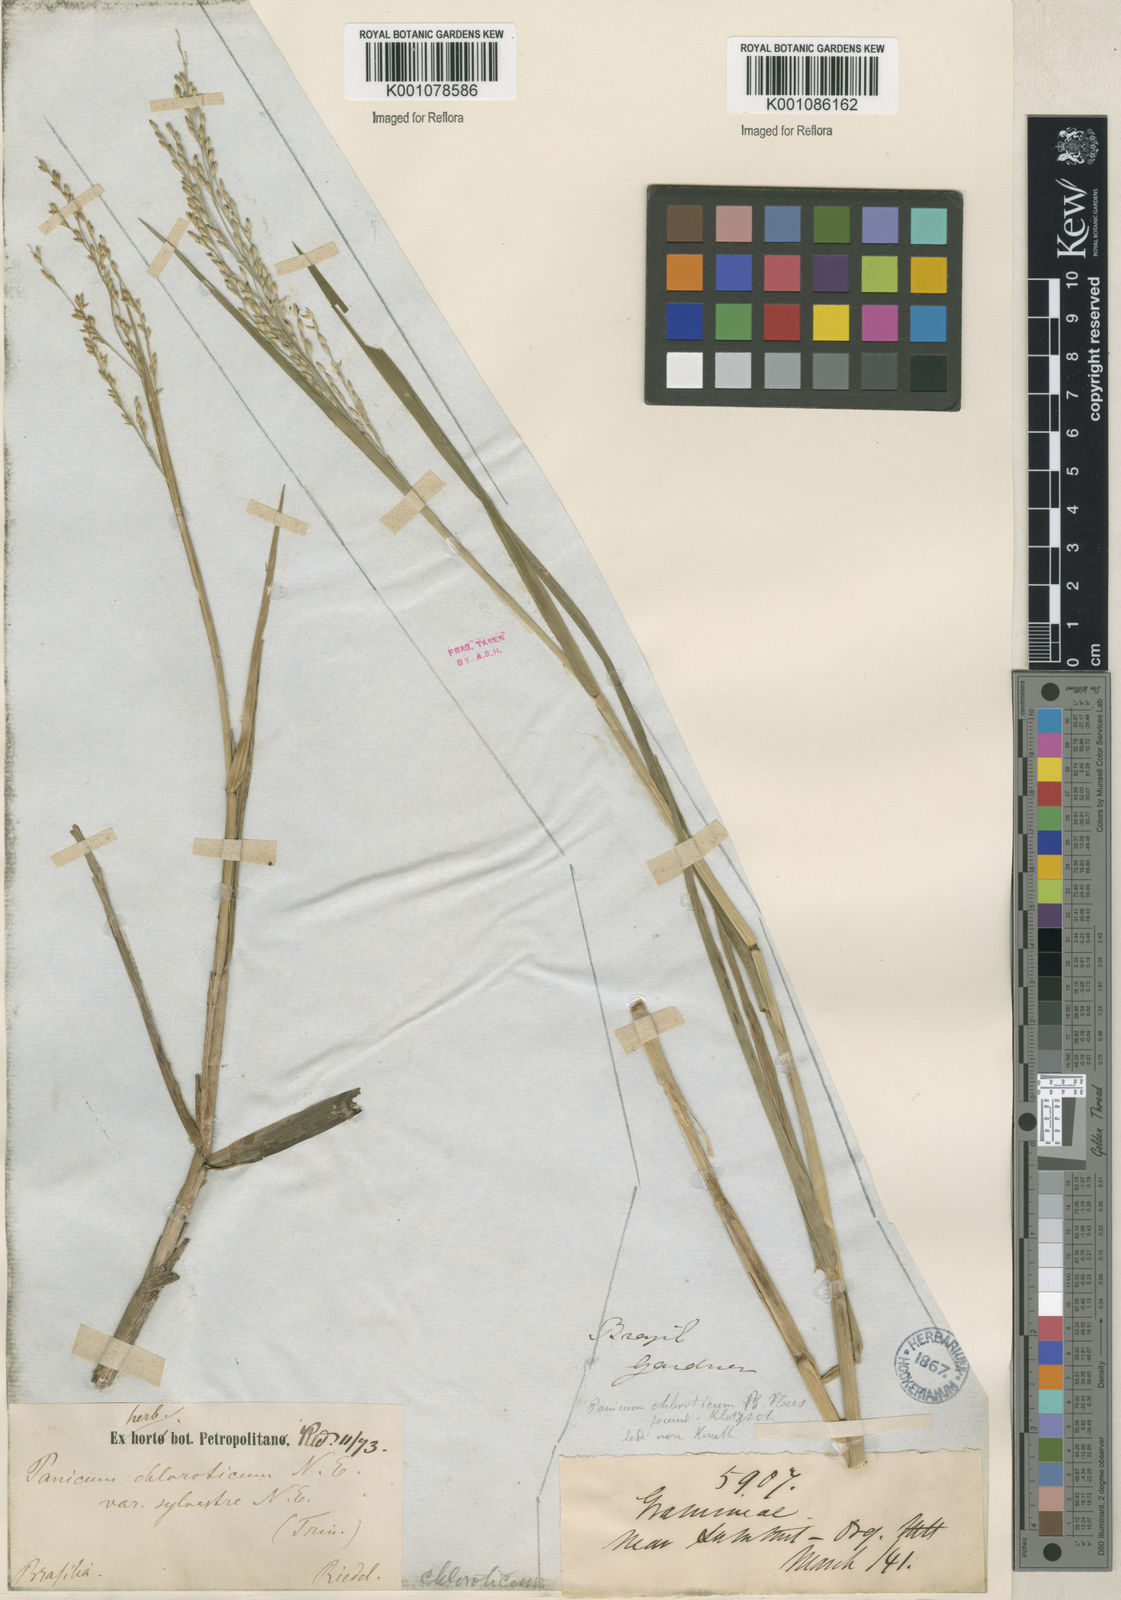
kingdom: Plantae
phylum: Tracheophyta
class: Liliopsida
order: Poales
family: Poaceae
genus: Panicum
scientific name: Panicum dichotomiflorum
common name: Autumn millet
